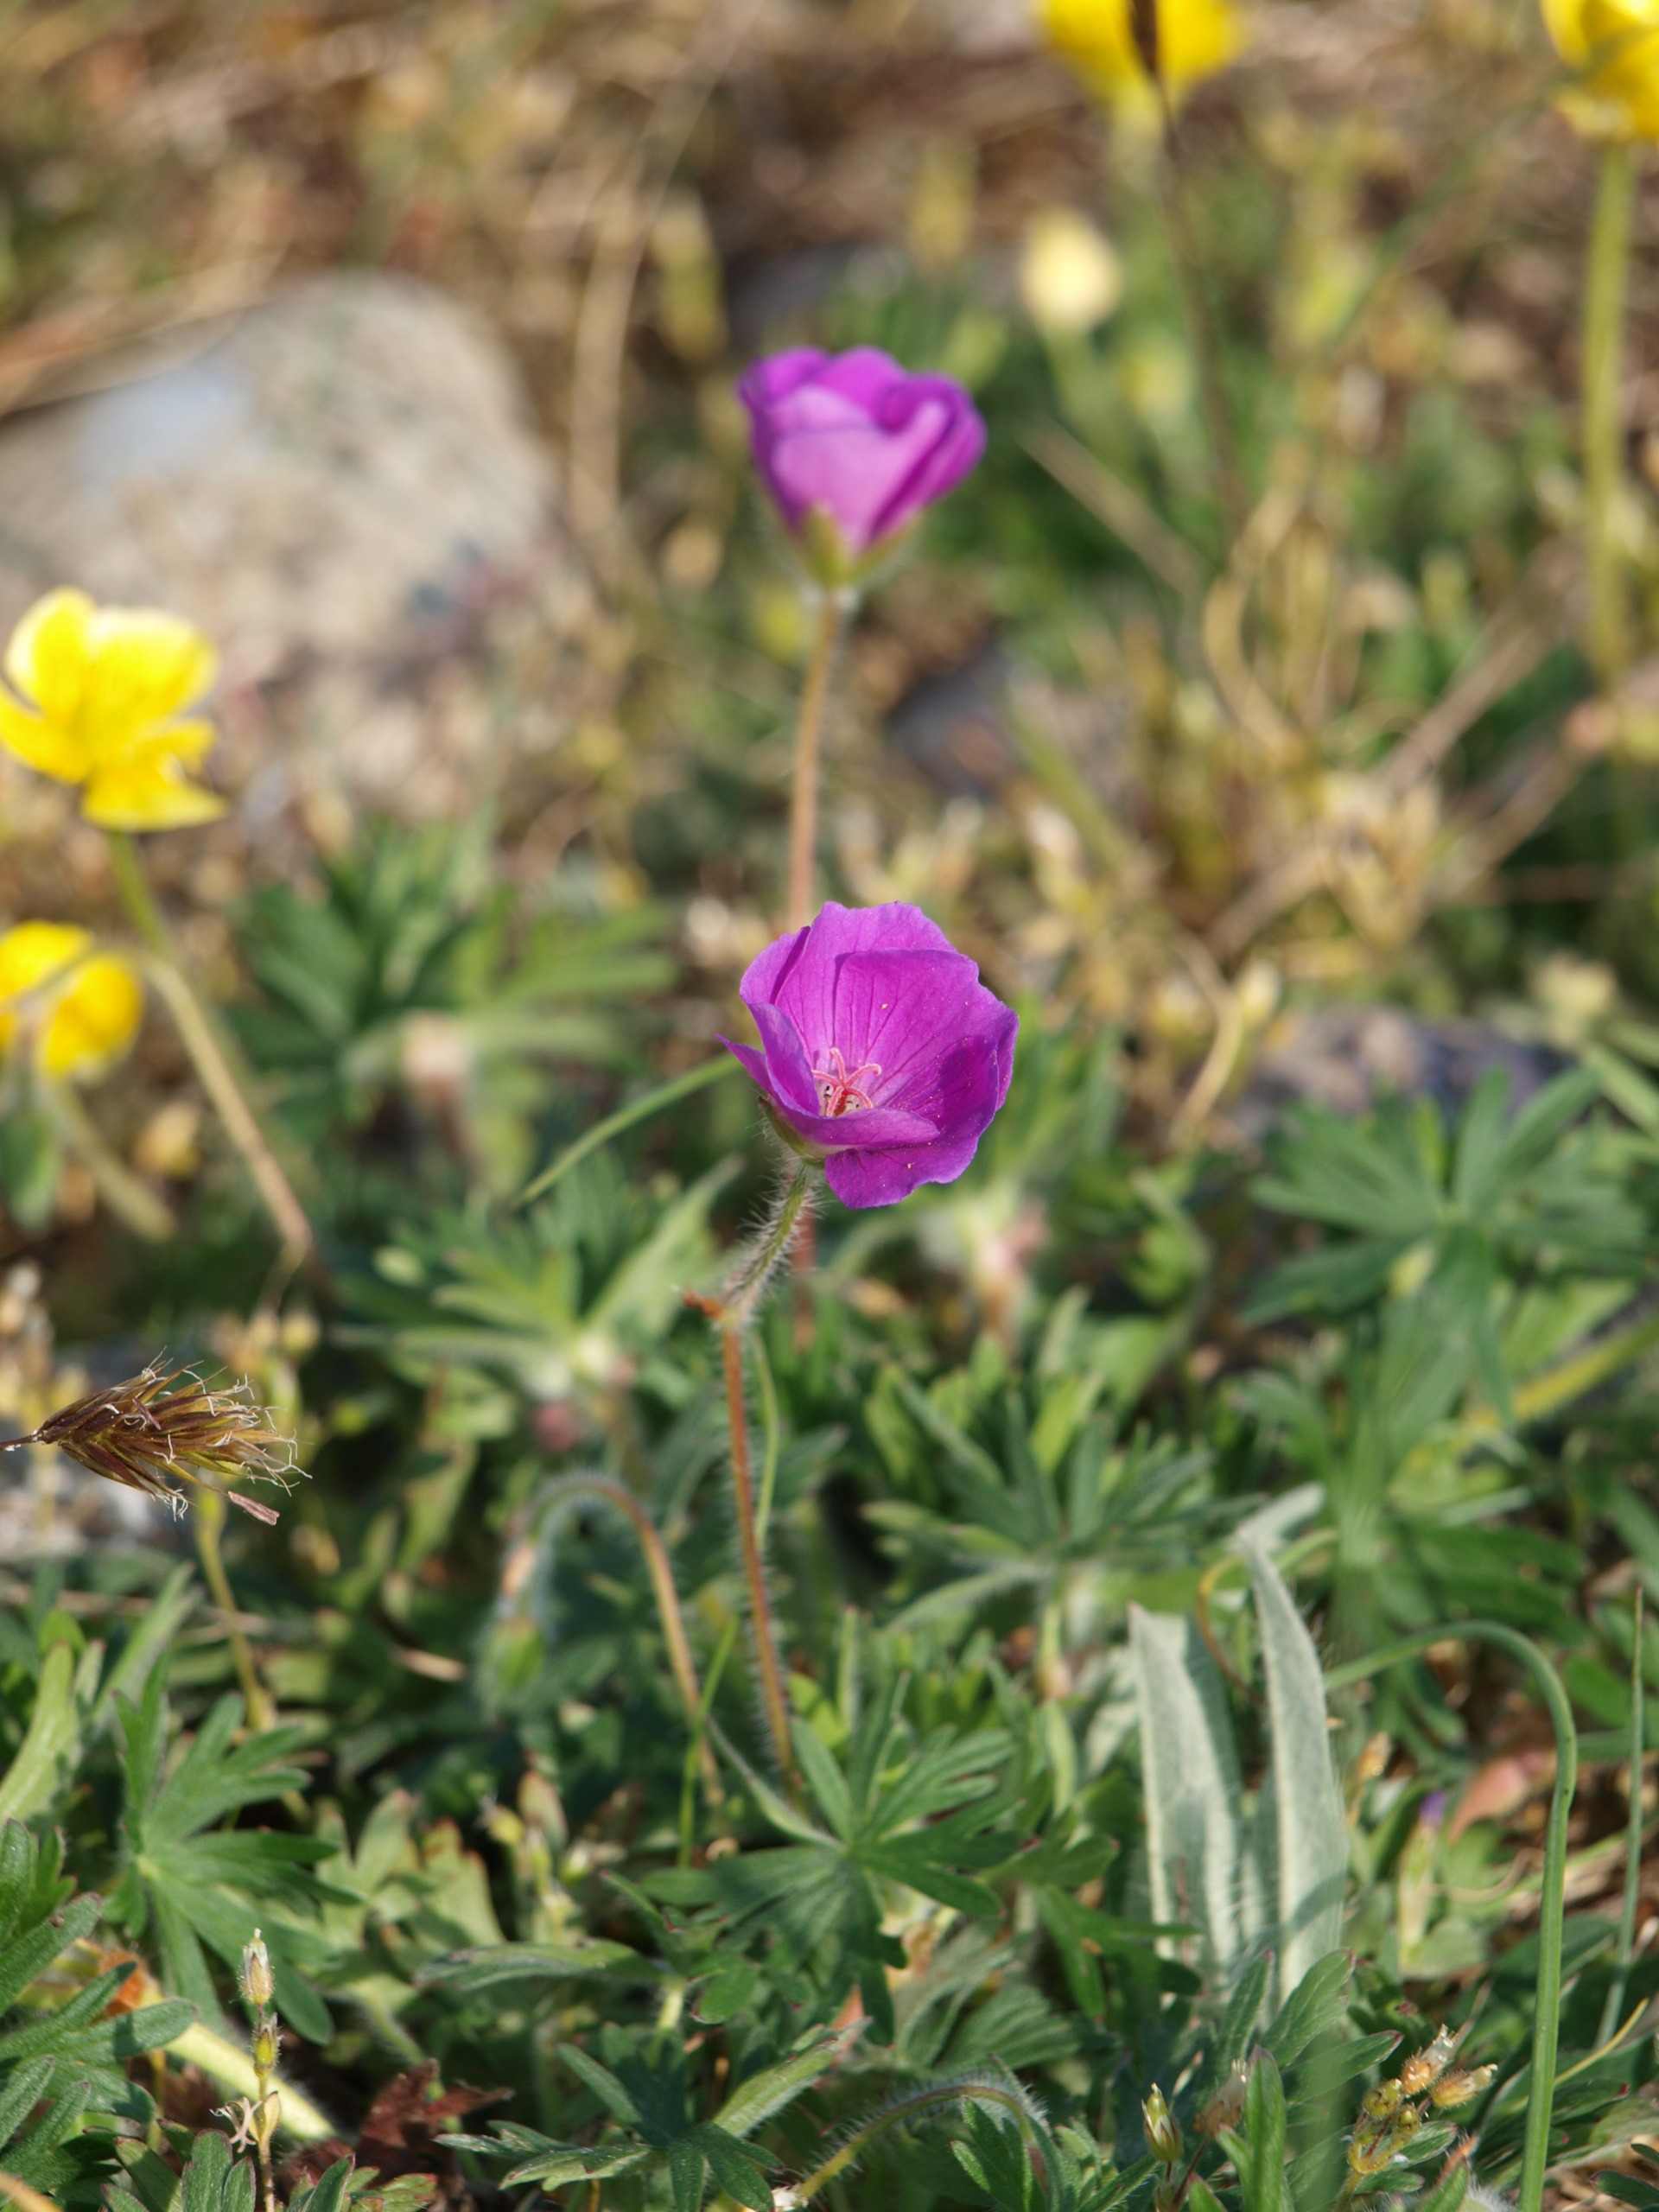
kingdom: Plantae
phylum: Tracheophyta
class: Magnoliopsida
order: Geraniales
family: Geraniaceae
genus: Geranium
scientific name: Geranium sanguineum
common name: Blodrød storkenæb
